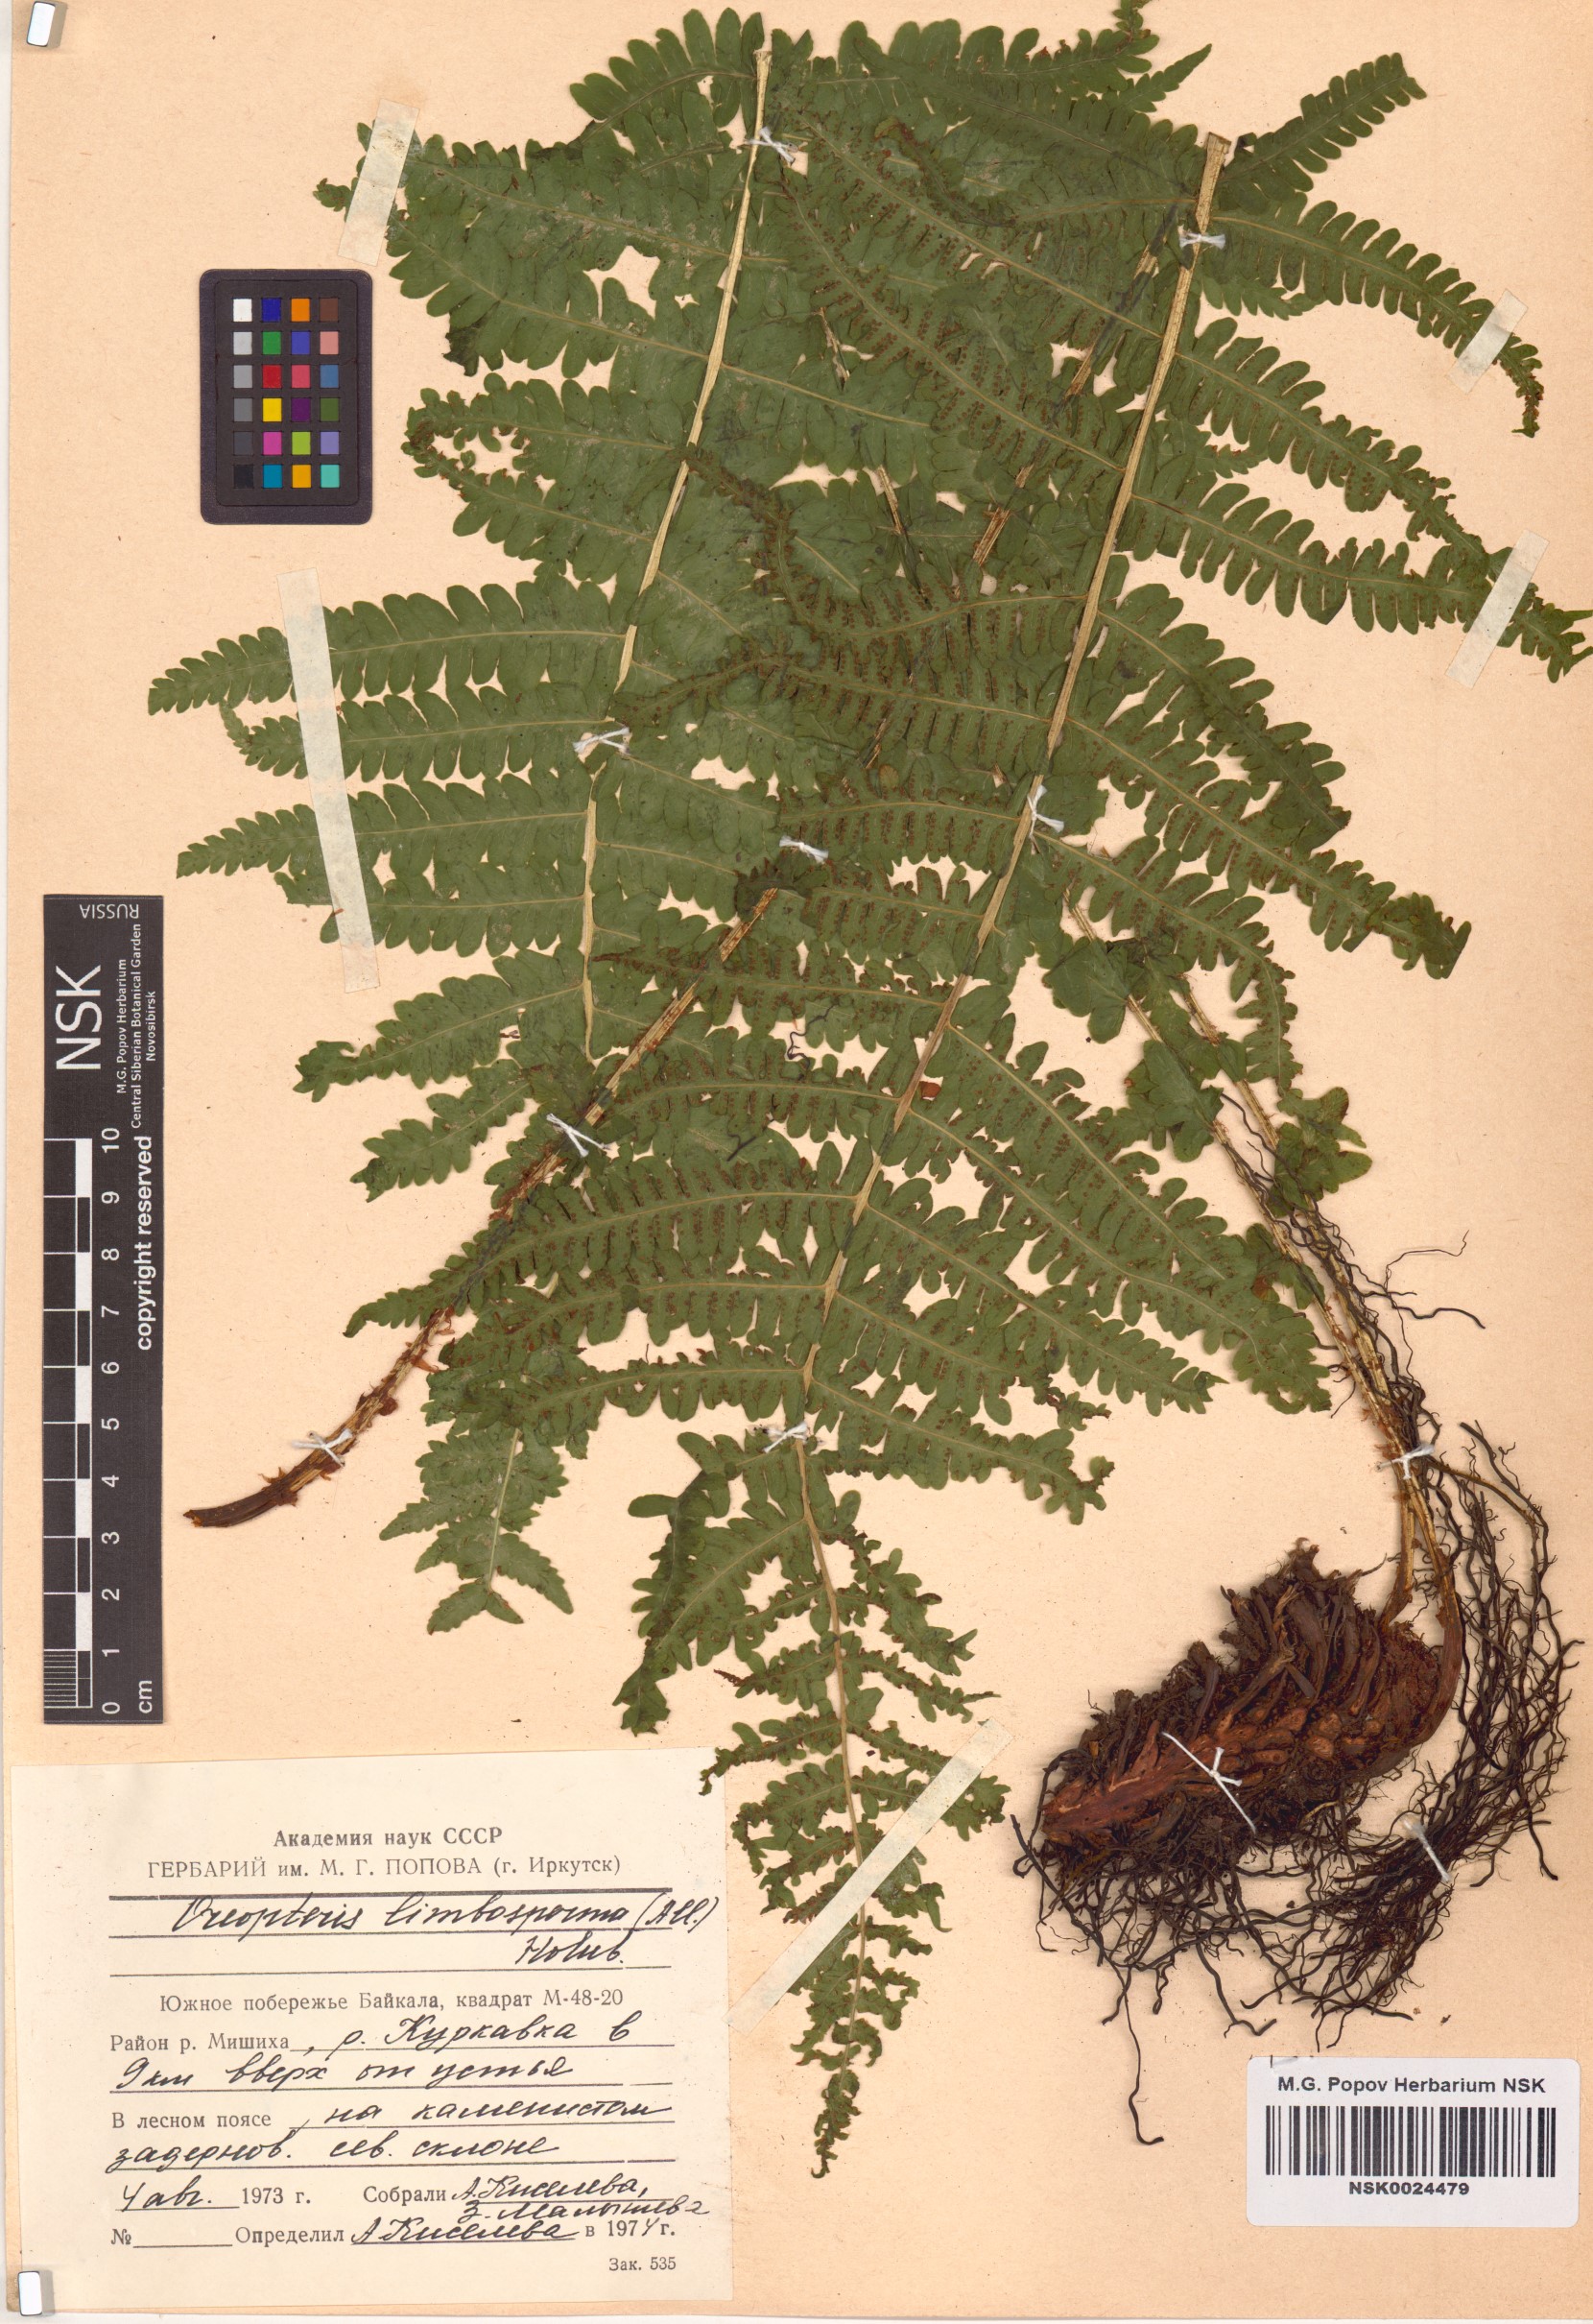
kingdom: Plantae
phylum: Tracheophyta
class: Polypodiopsida
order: Polypodiales
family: Thelypteridaceae
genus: Oreopteris
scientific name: Oreopteris limbosperma
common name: Lemon-scented fern
